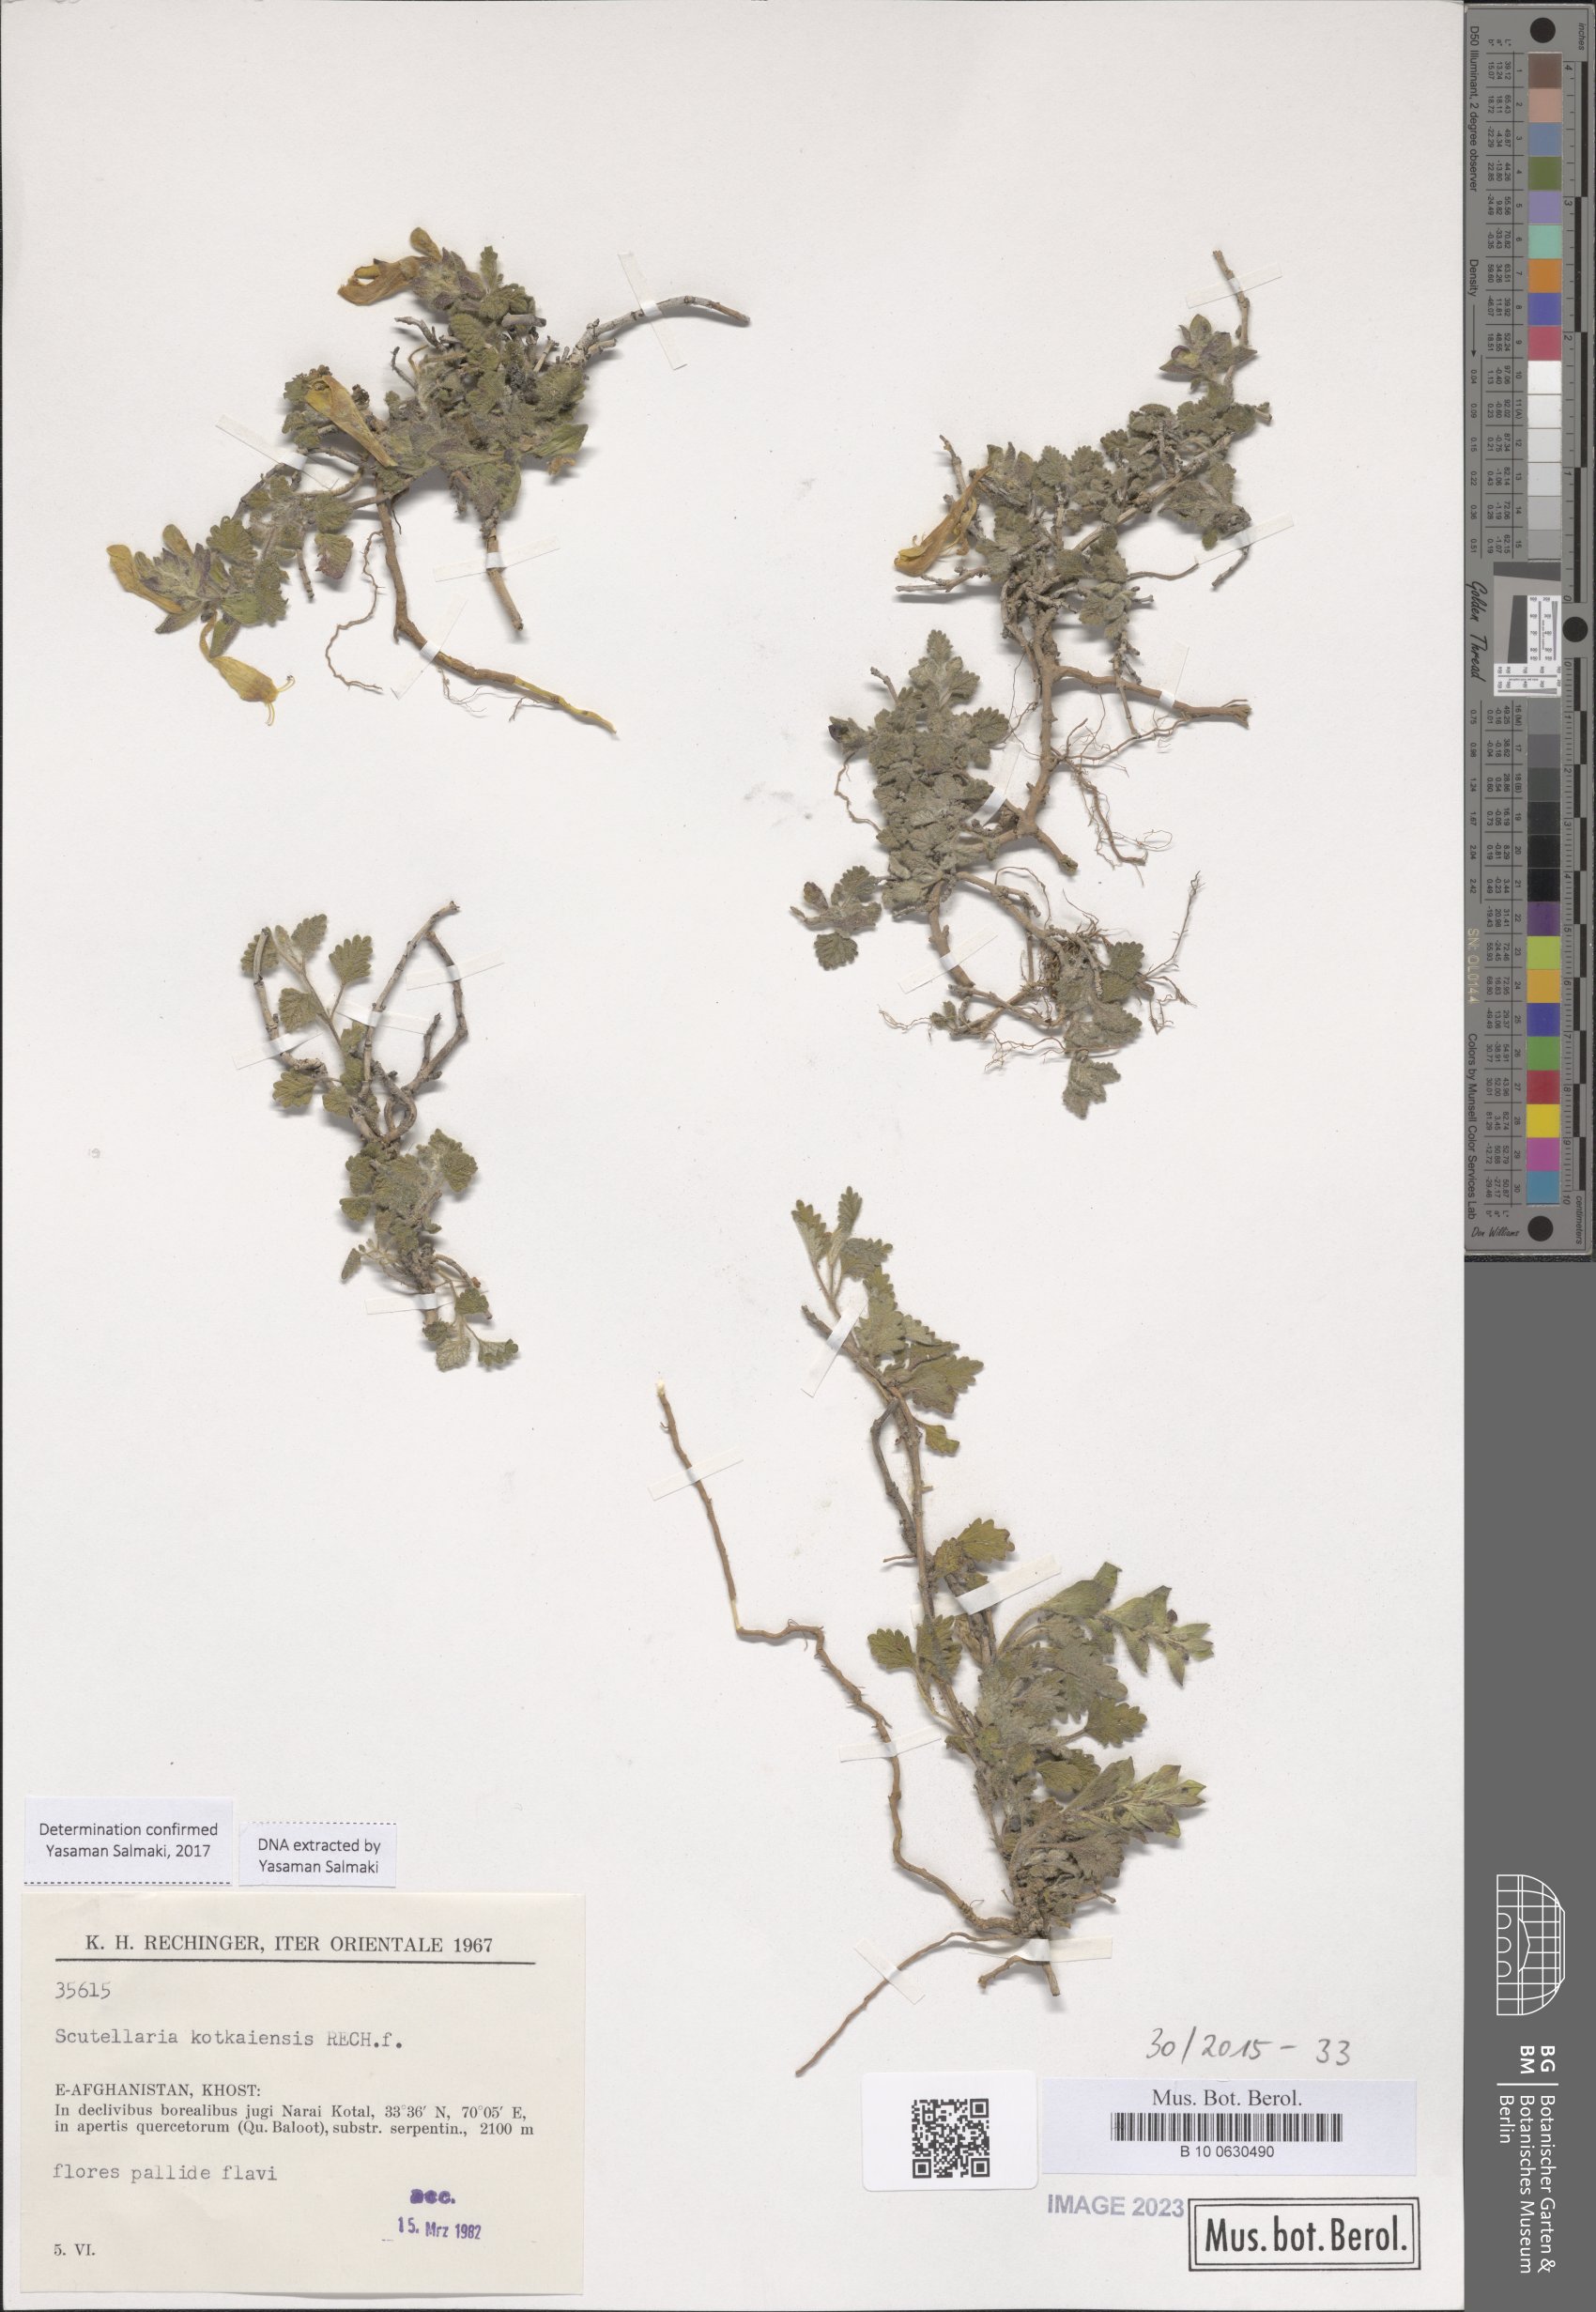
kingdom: Plantae
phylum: Tracheophyta
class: Magnoliopsida
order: Lamiales
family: Lamiaceae
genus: Scutellaria
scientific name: Scutellaria kotkaiensis
